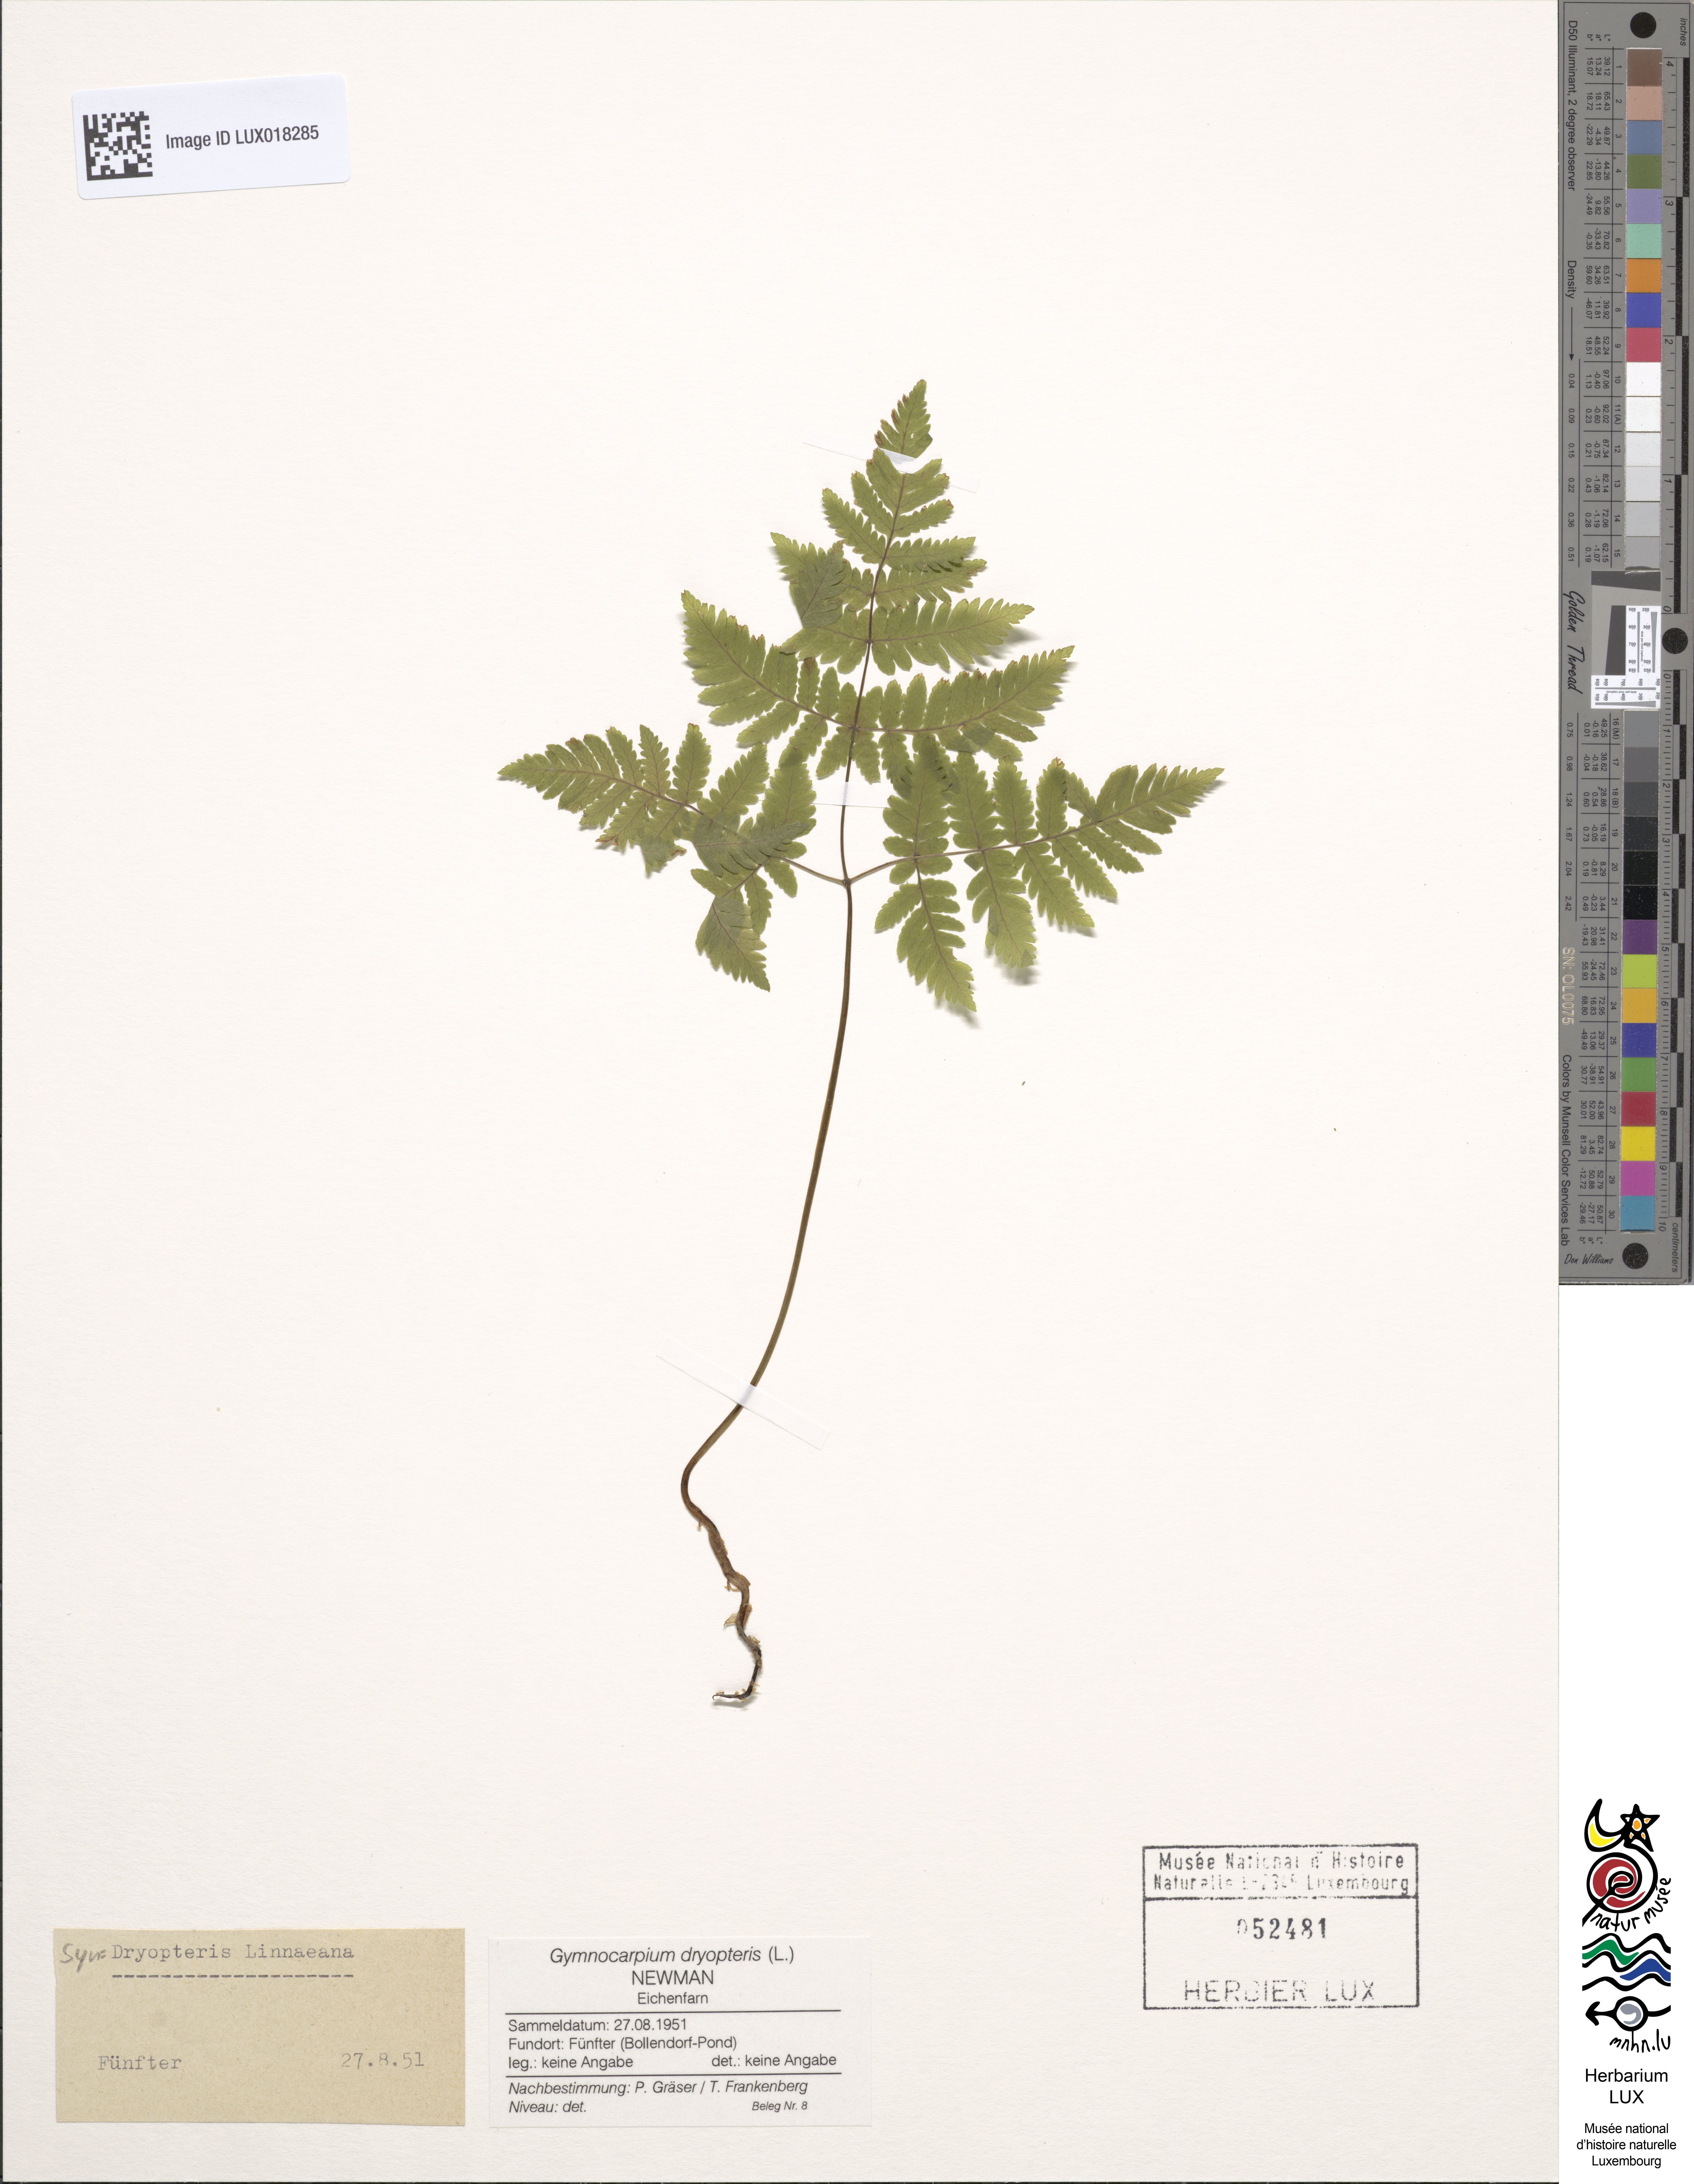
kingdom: Plantae
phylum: Tracheophyta
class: Polypodiopsida
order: Polypodiales
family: Cystopteridaceae
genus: Gymnocarpium
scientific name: Gymnocarpium dryopteris
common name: Oak fern
